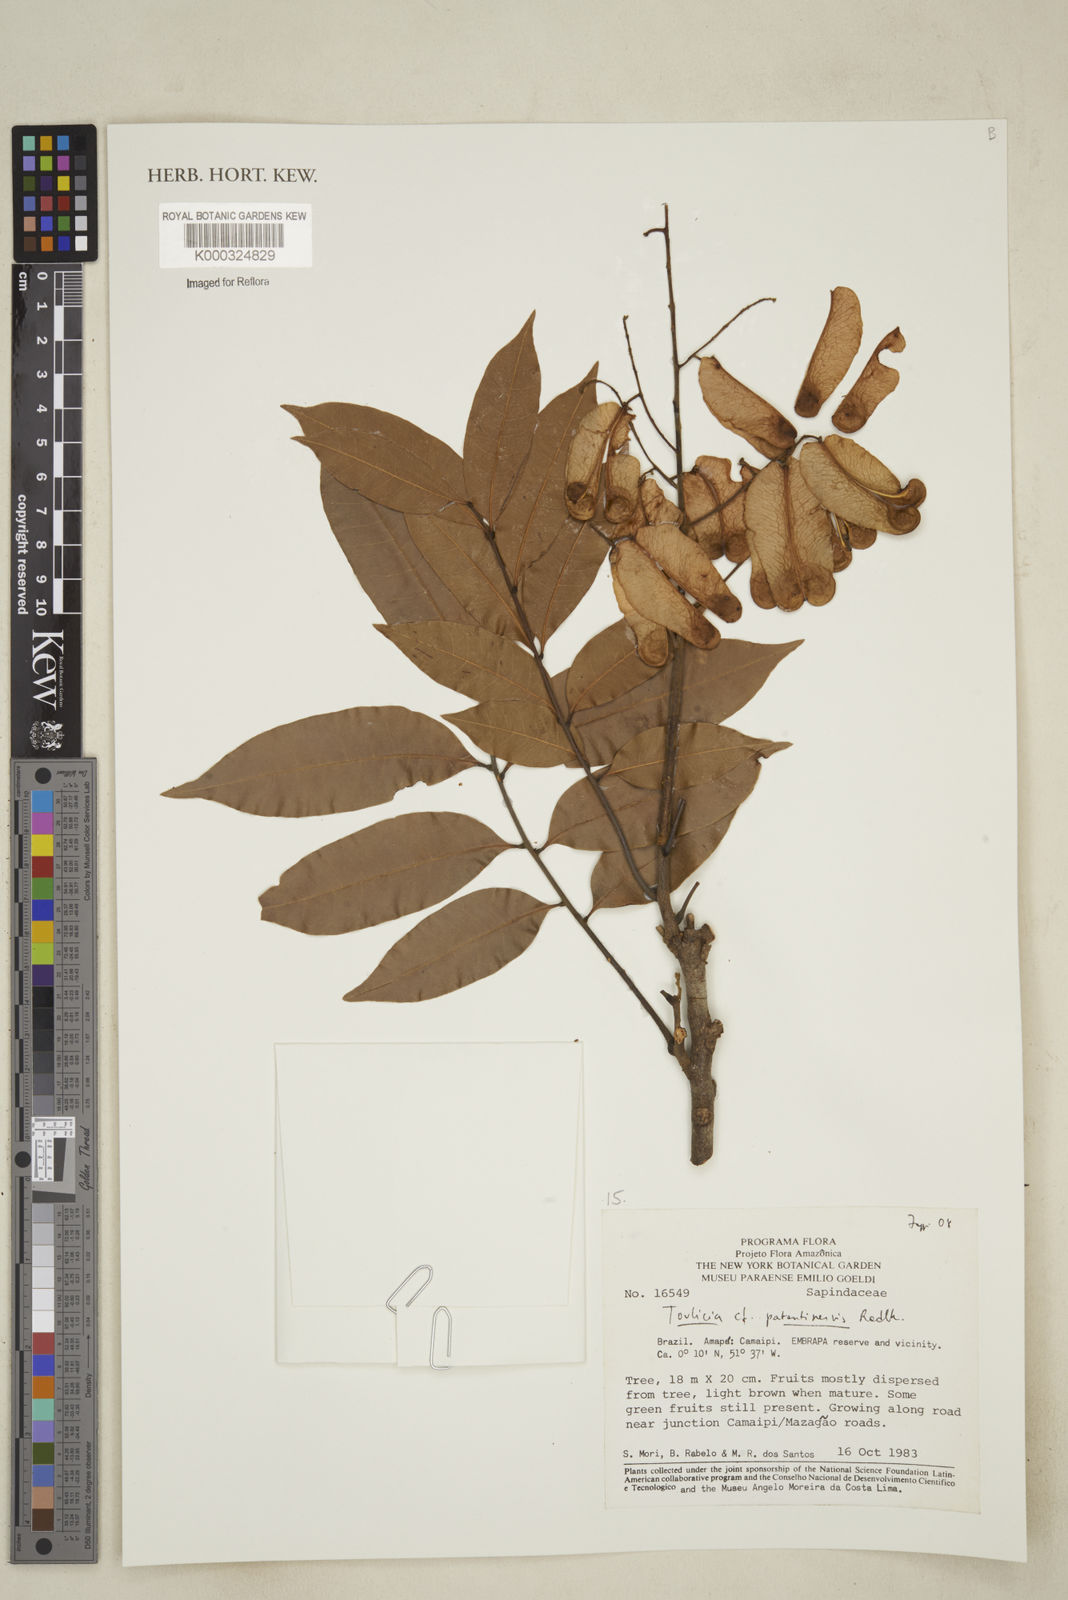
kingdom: Plantae
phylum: Tracheophyta
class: Magnoliopsida
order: Sapindales
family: Sapindaceae
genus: Toulicia
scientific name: Toulicia patentinervis
